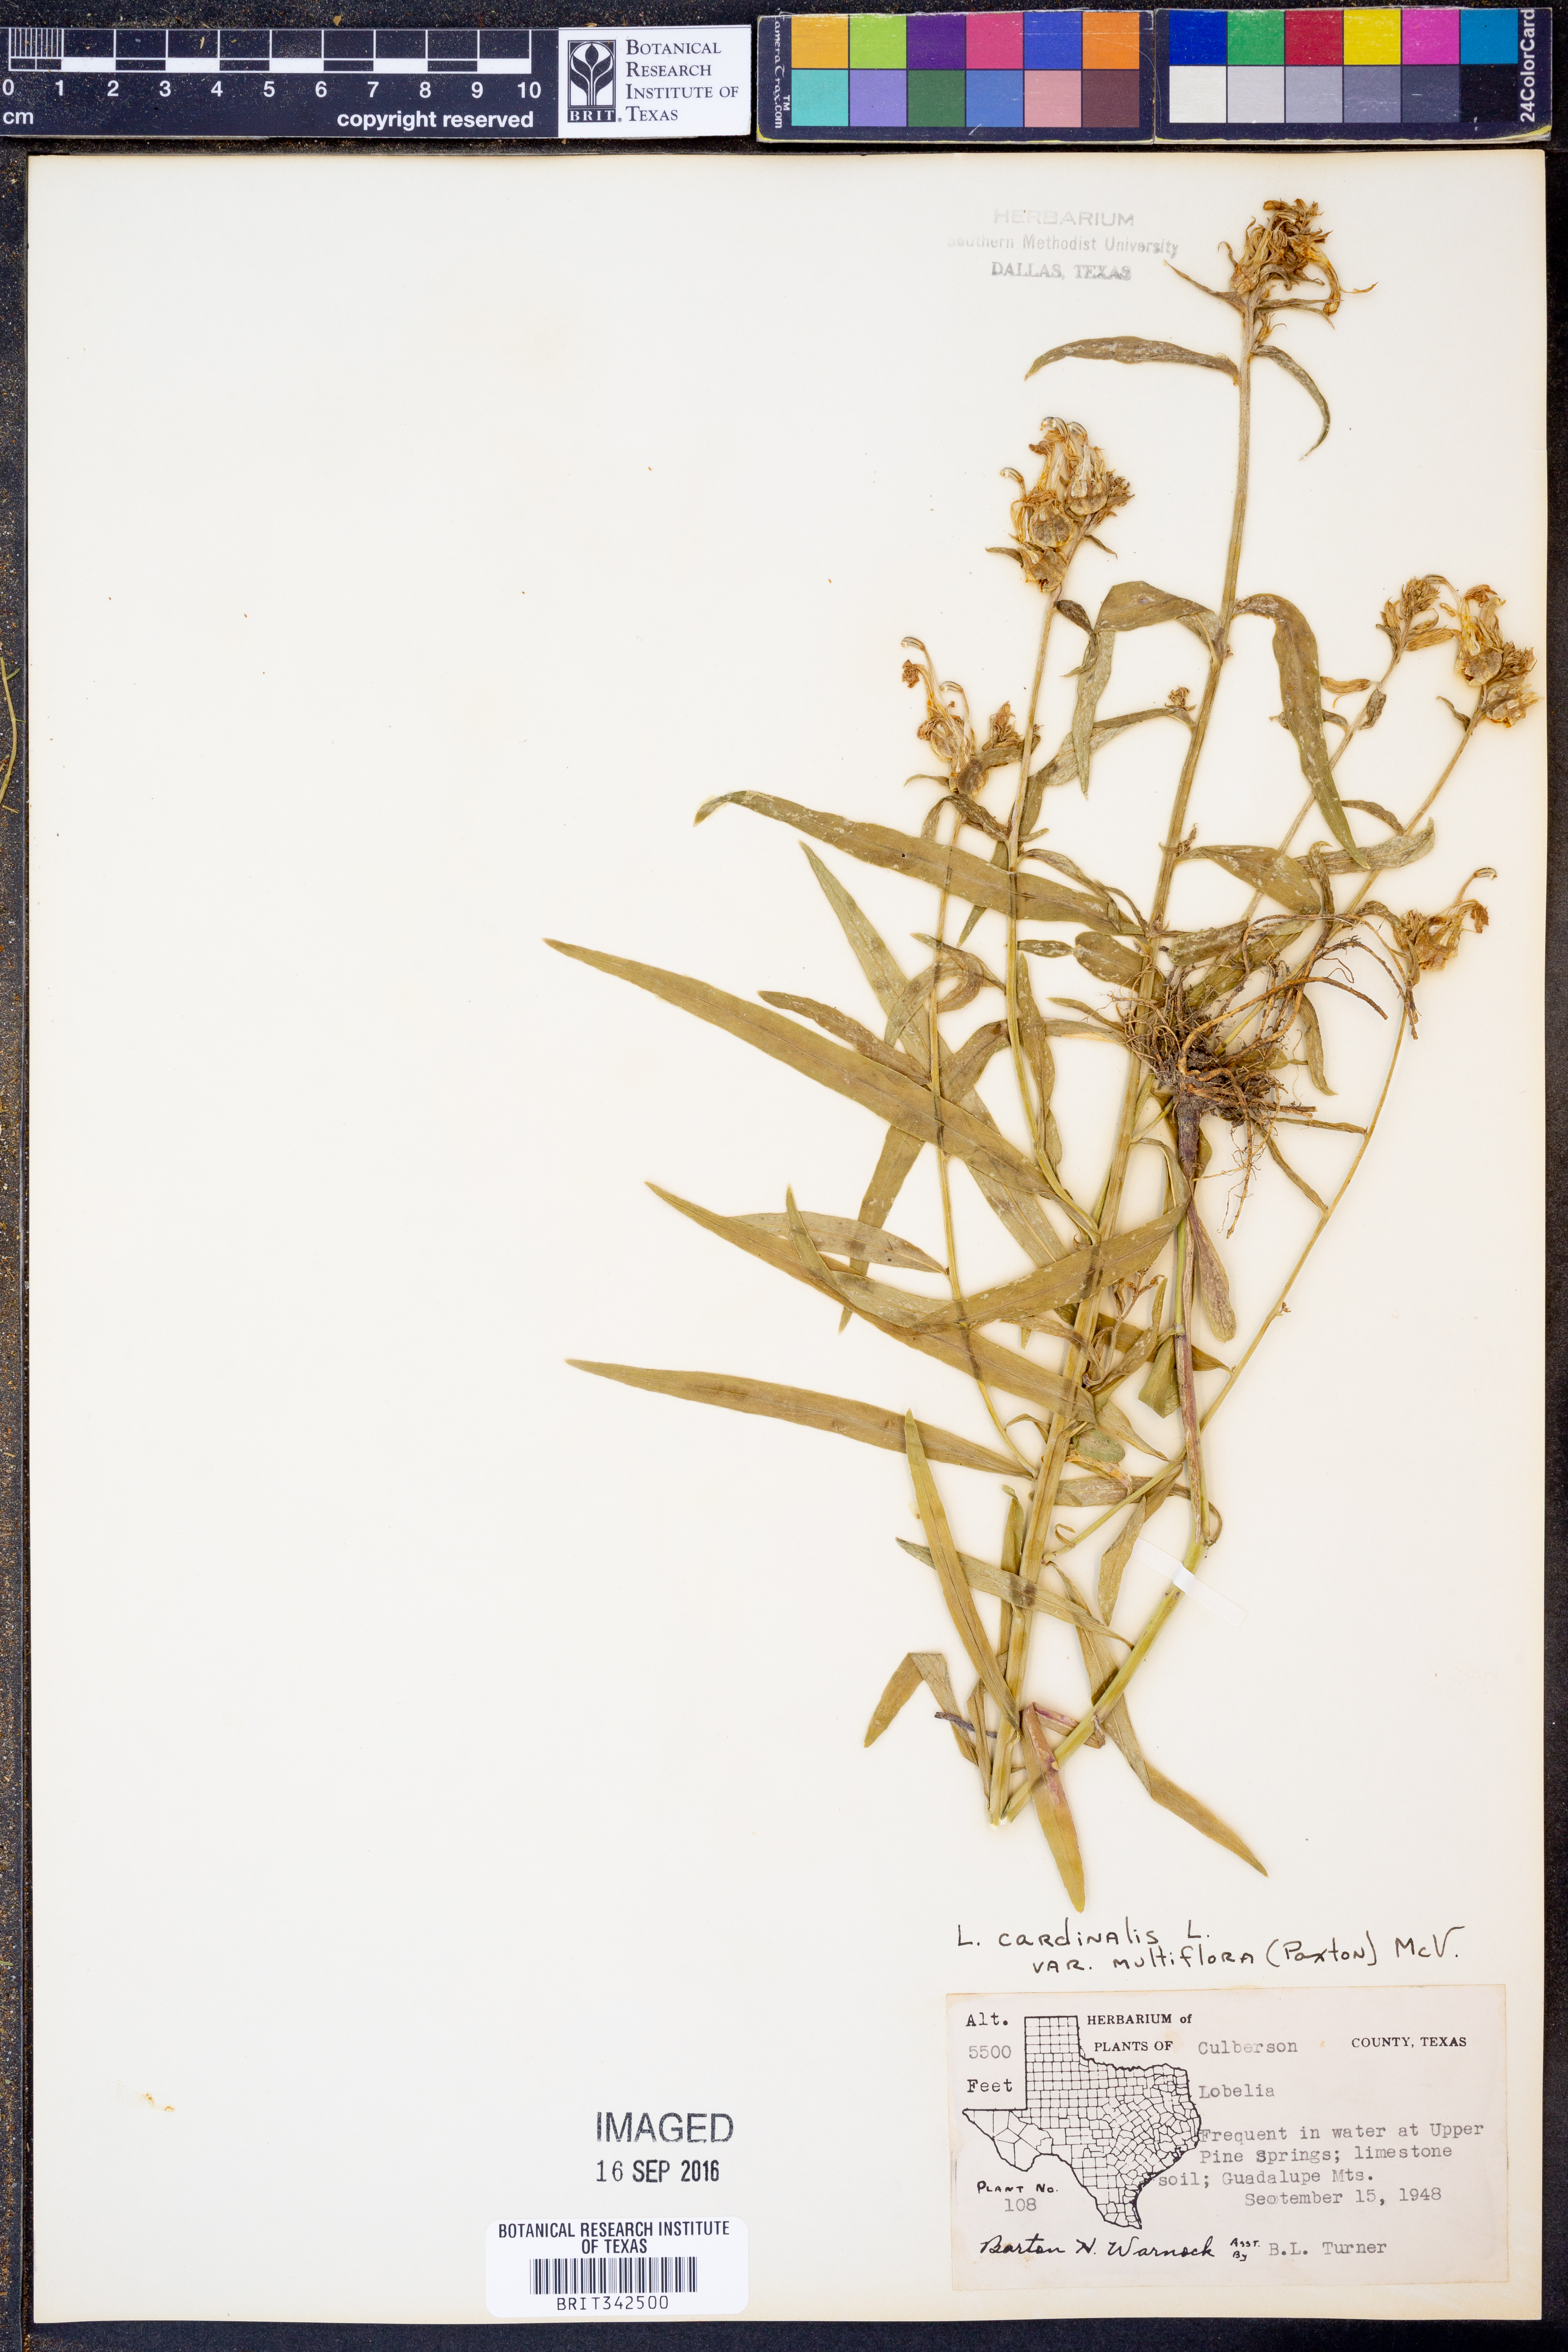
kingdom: Plantae
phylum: Tracheophyta
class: Magnoliopsida
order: Asterales
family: Campanulaceae
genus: Lobelia
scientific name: Lobelia cardinalis
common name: Cardinal flower
